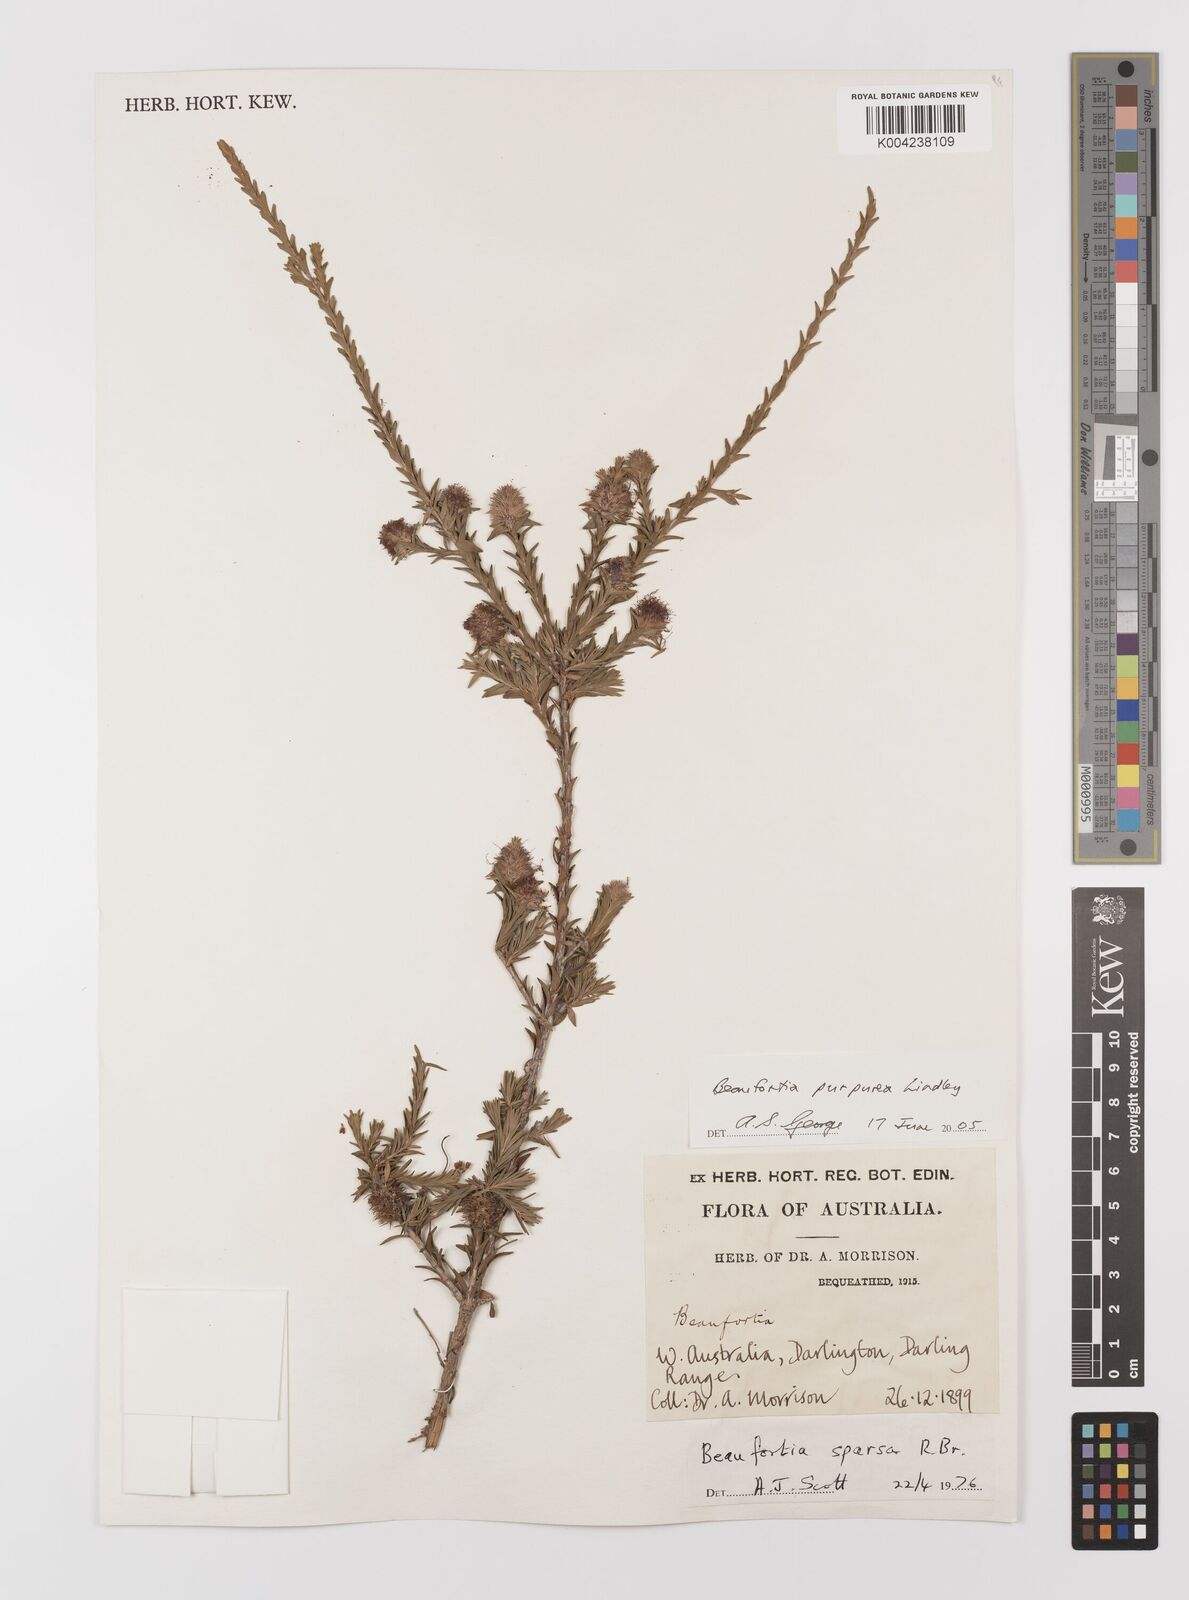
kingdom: Plantae
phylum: Tracheophyta
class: Magnoliopsida
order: Myrtales
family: Myrtaceae
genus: Melaleuca
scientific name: Melaleuca purpurea
